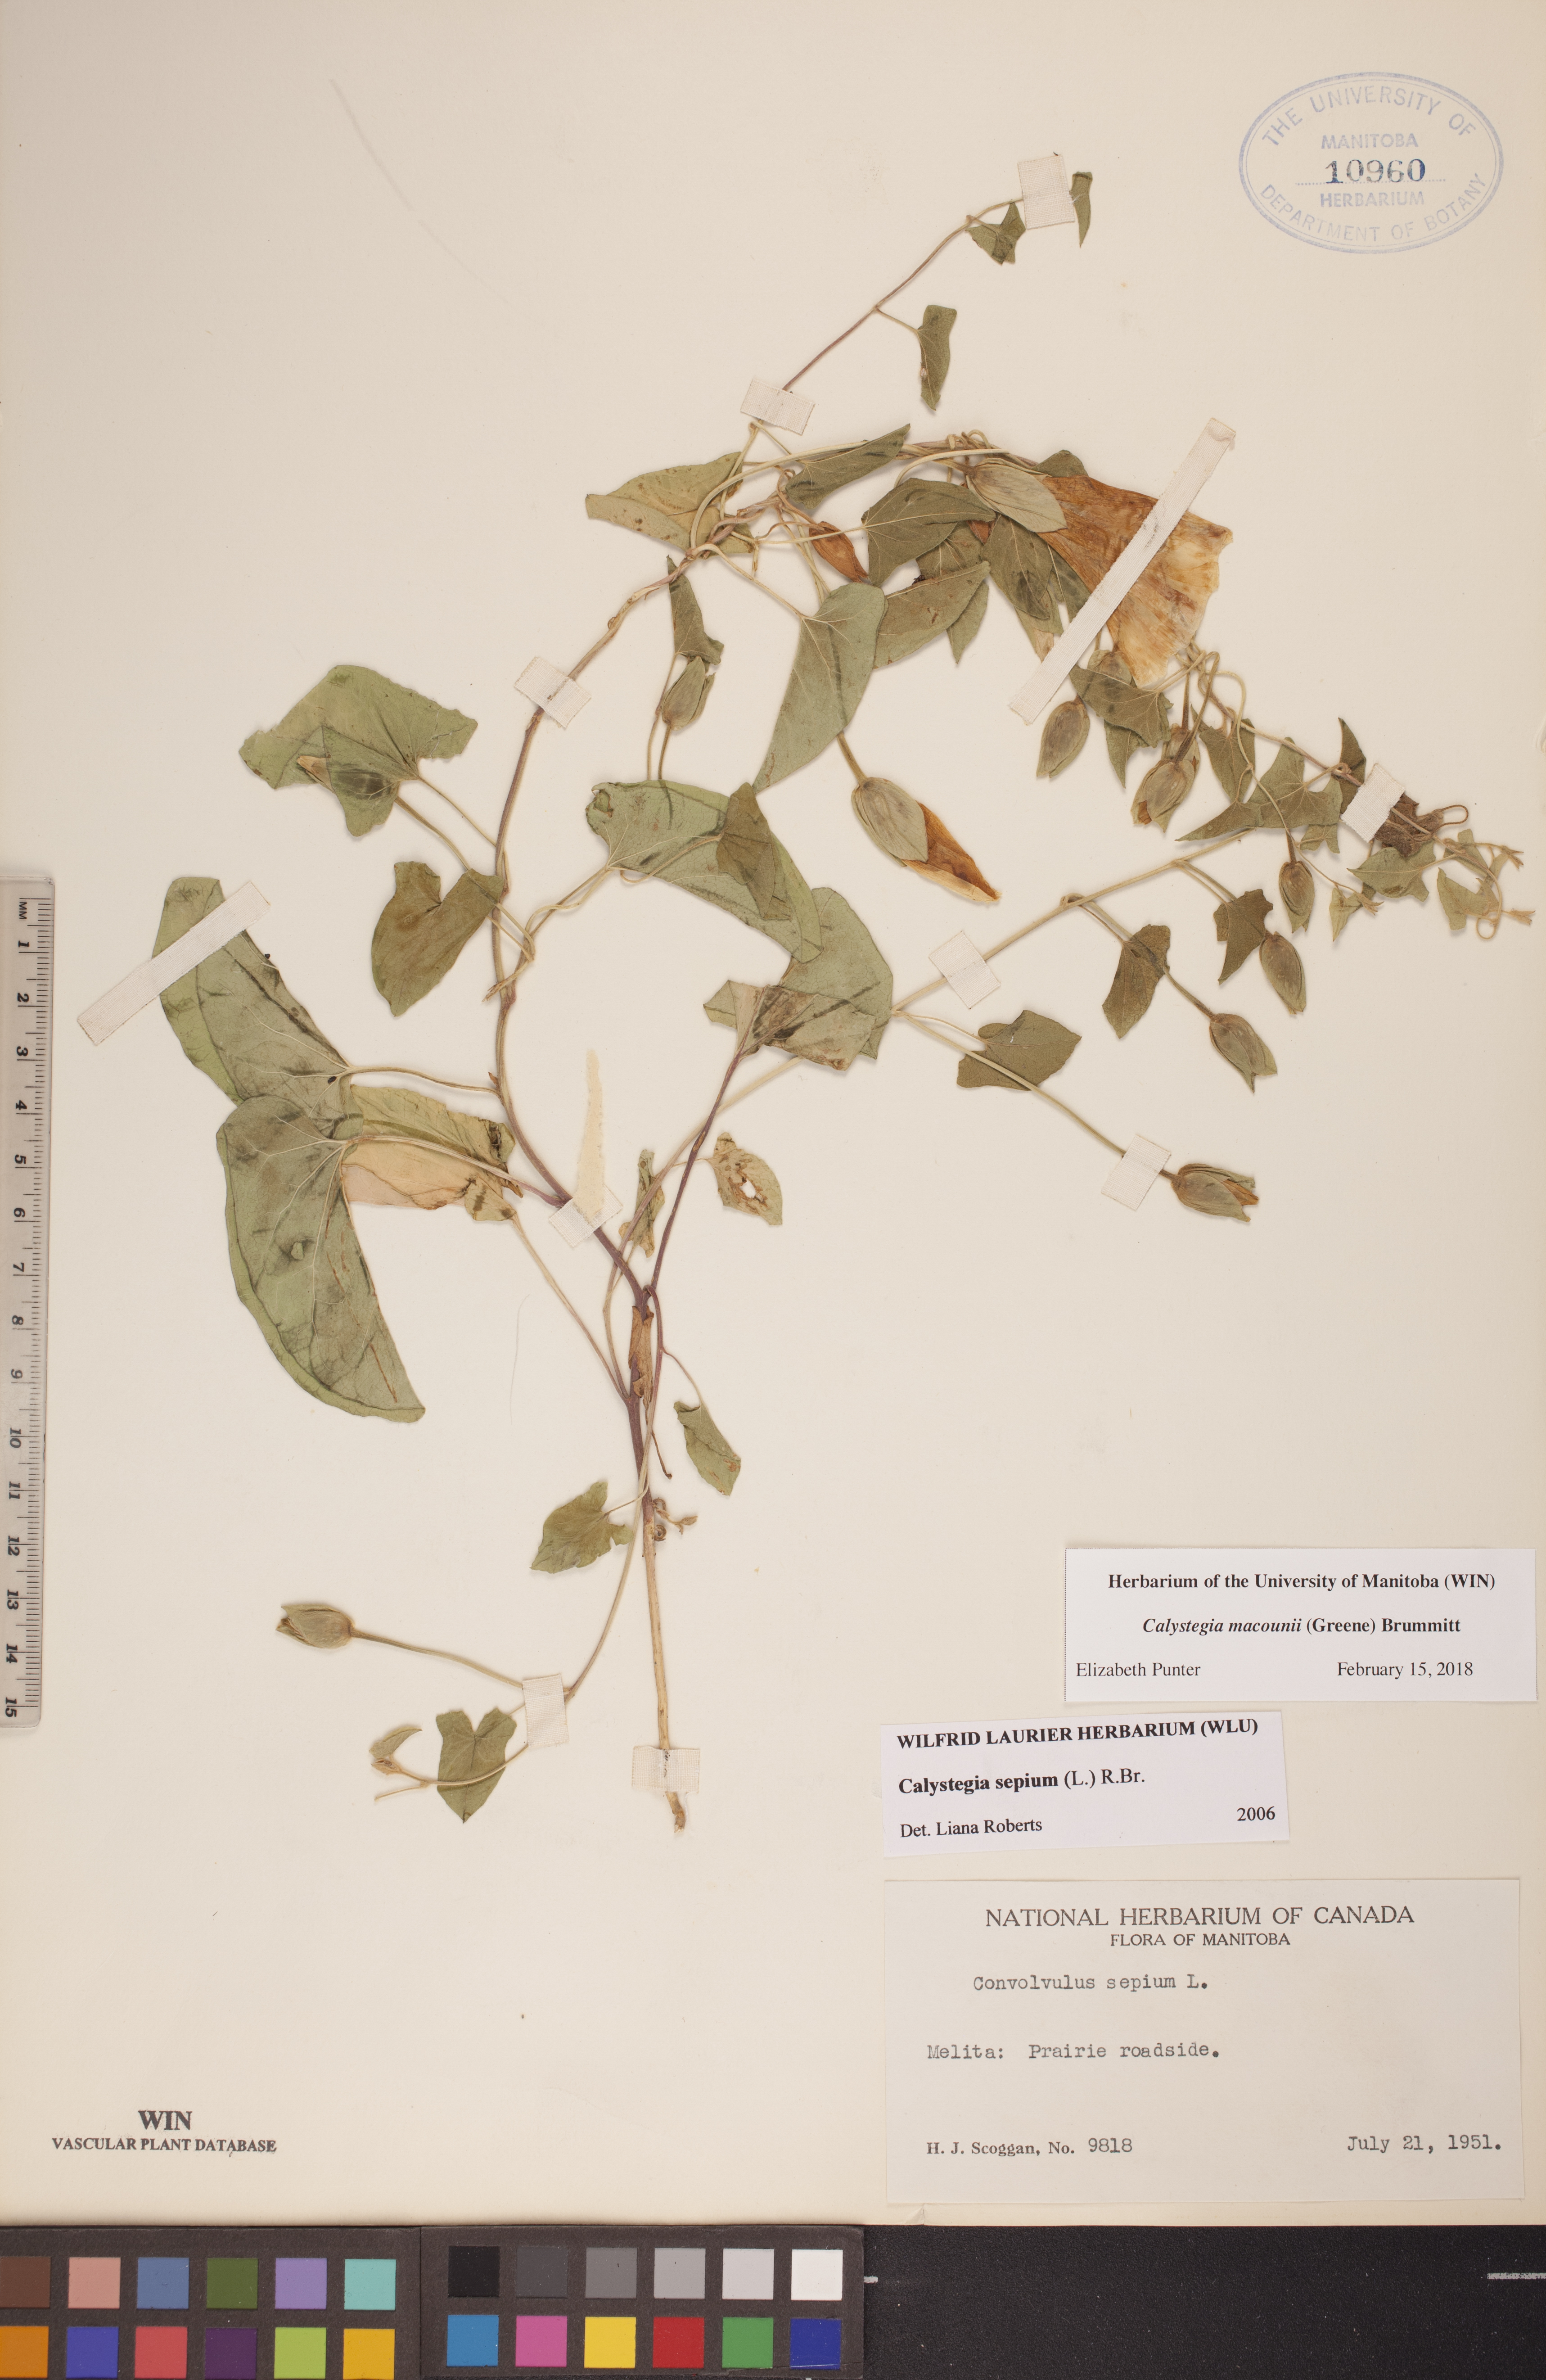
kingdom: Plantae
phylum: Tracheophyta
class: Magnoliopsida
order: Solanales
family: Convolvulaceae
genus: Calystegia
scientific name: Calystegia macounii
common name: Macoun's bindweed
